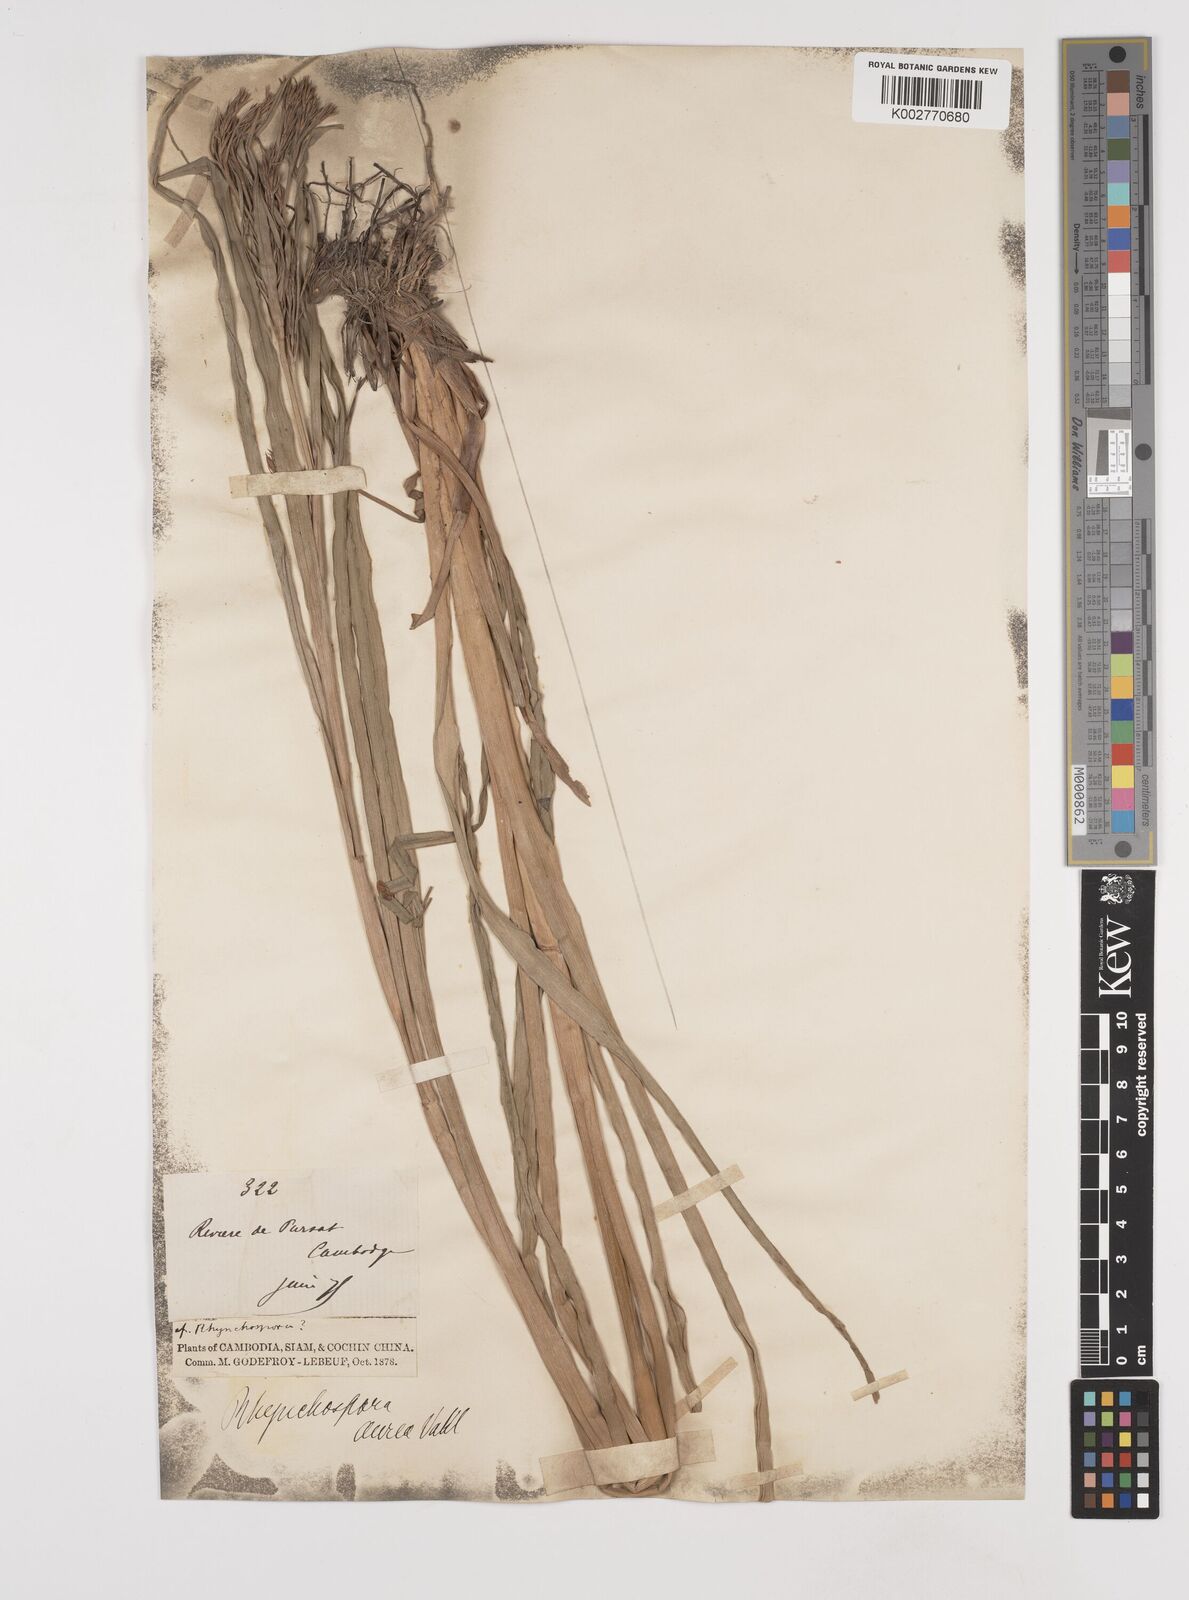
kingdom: Plantae
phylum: Tracheophyta
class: Liliopsida
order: Poales
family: Cyperaceae
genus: Rhynchospora
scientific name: Rhynchospora corymbosa
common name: Golden beak sedge
